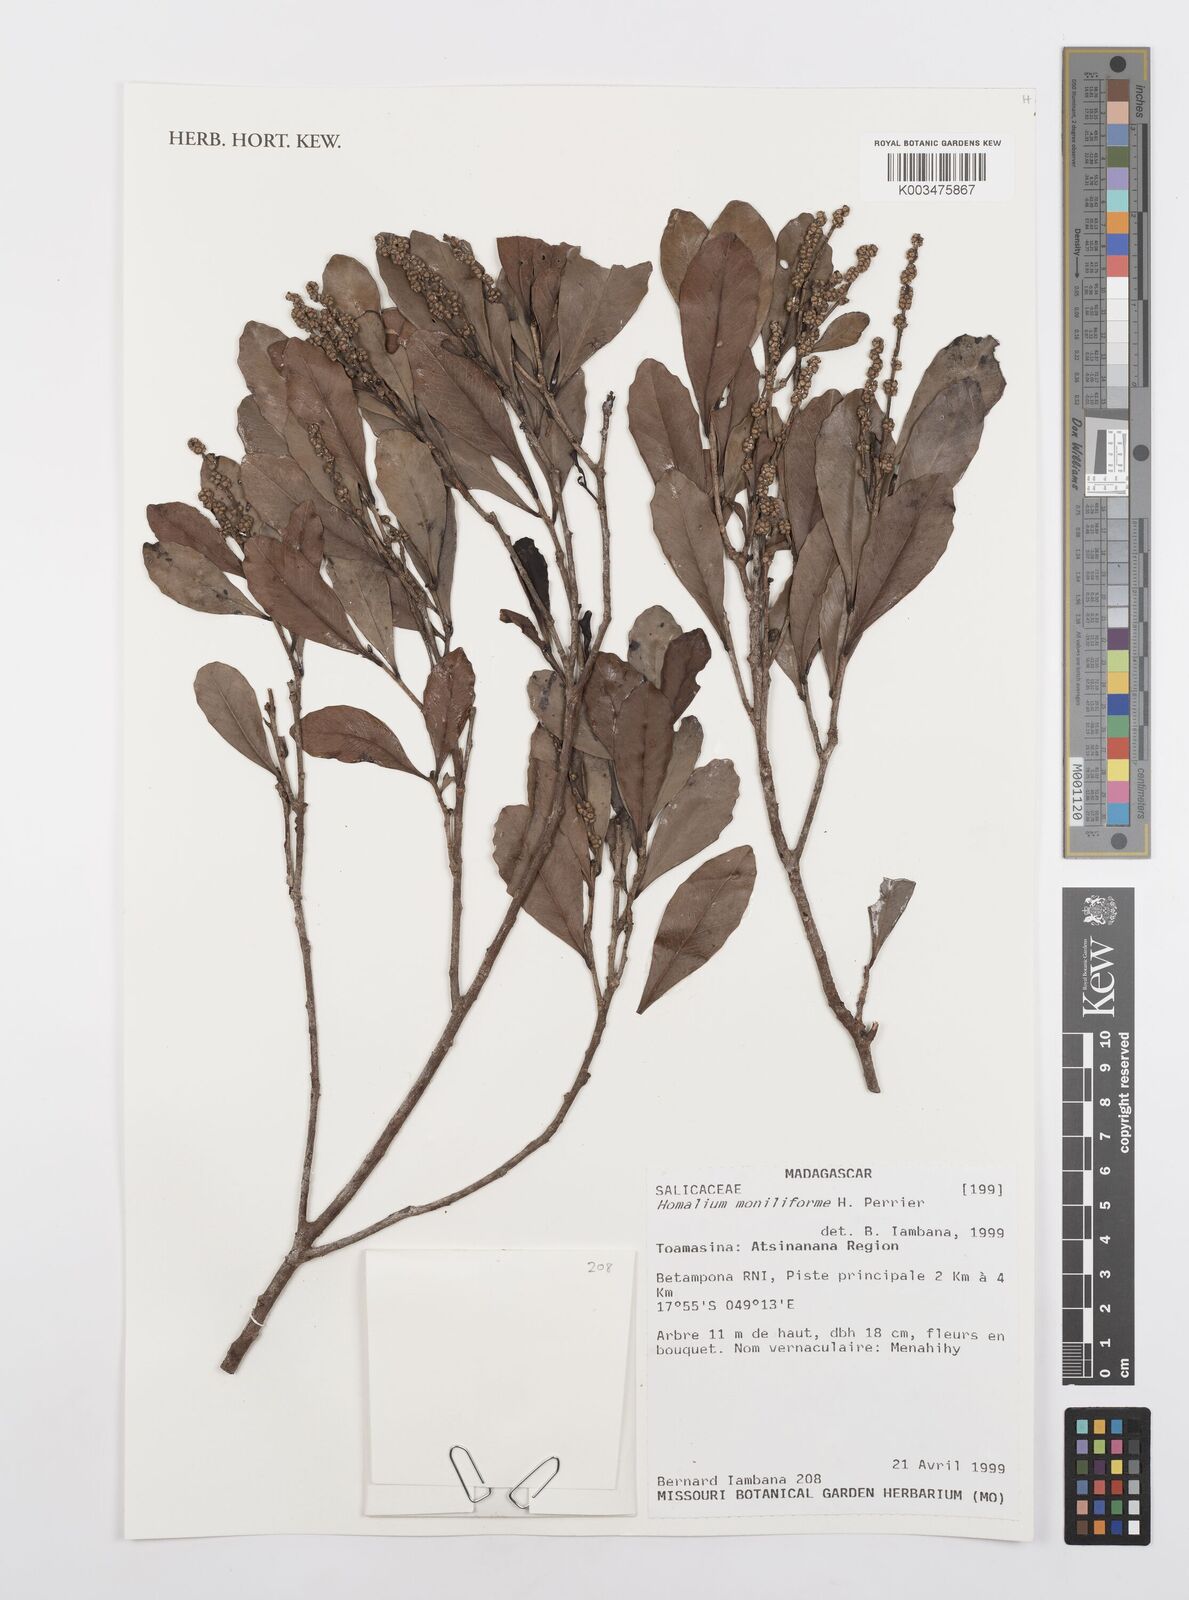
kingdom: Plantae
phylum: Tracheophyta
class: Magnoliopsida
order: Malpighiales
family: Salicaceae
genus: Homalium
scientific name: Homalium moniliforme
